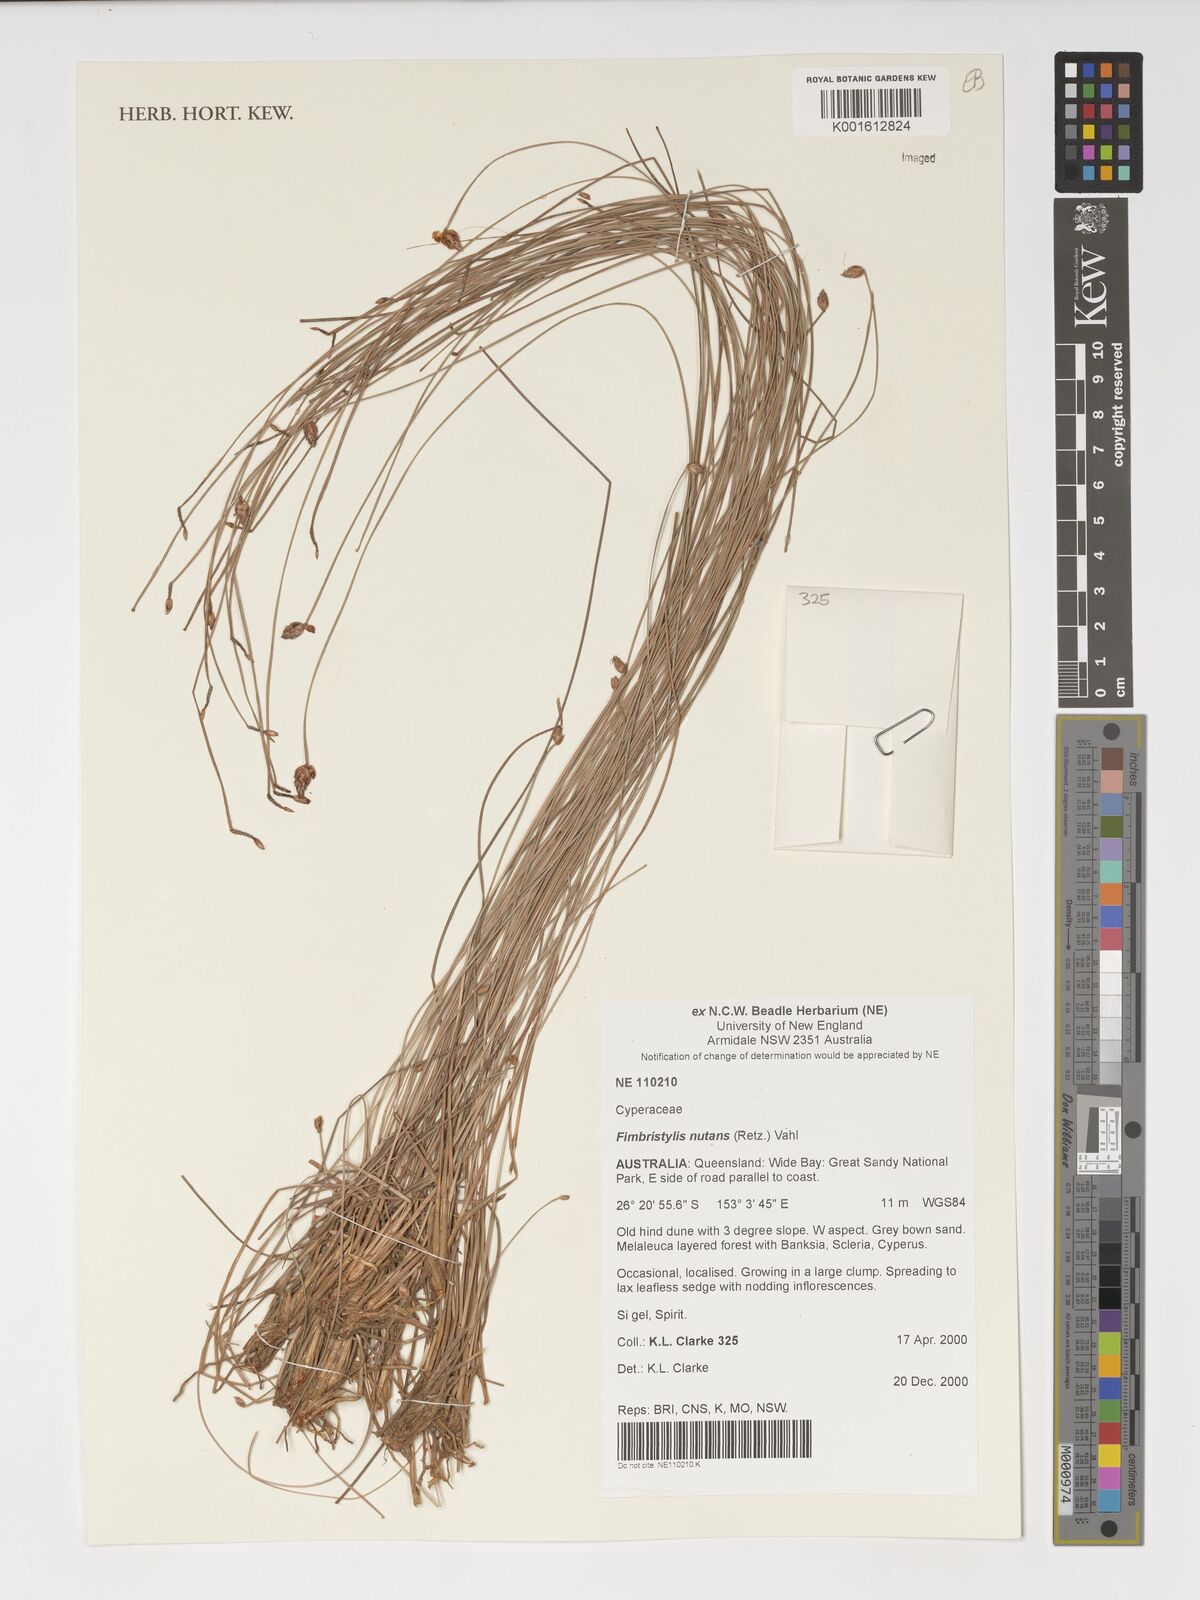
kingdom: Plantae
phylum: Tracheophyta
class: Liliopsida
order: Poales
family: Cyperaceae
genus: Fimbristylis
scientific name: Fimbristylis nutans
